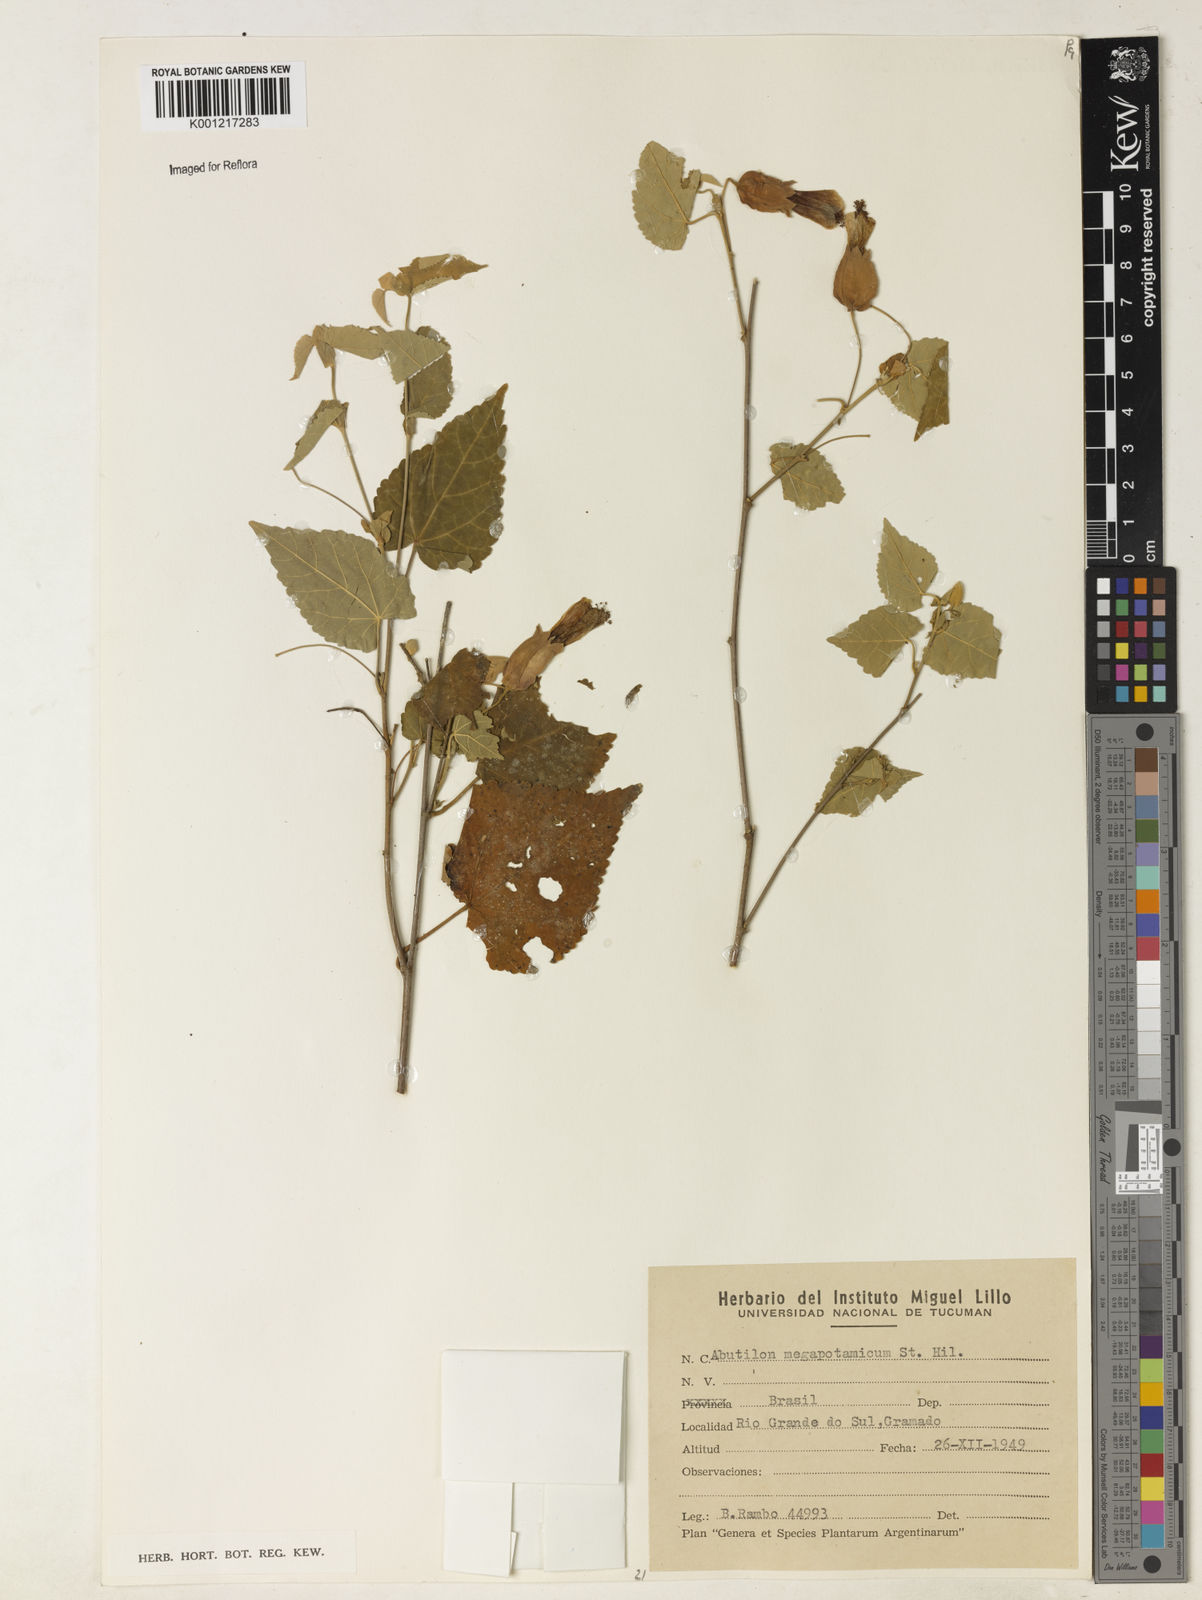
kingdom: Plantae
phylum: Tracheophyta
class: Magnoliopsida
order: Malvales
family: Malvaceae
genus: Callianthe
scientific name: Callianthe megapotamica
